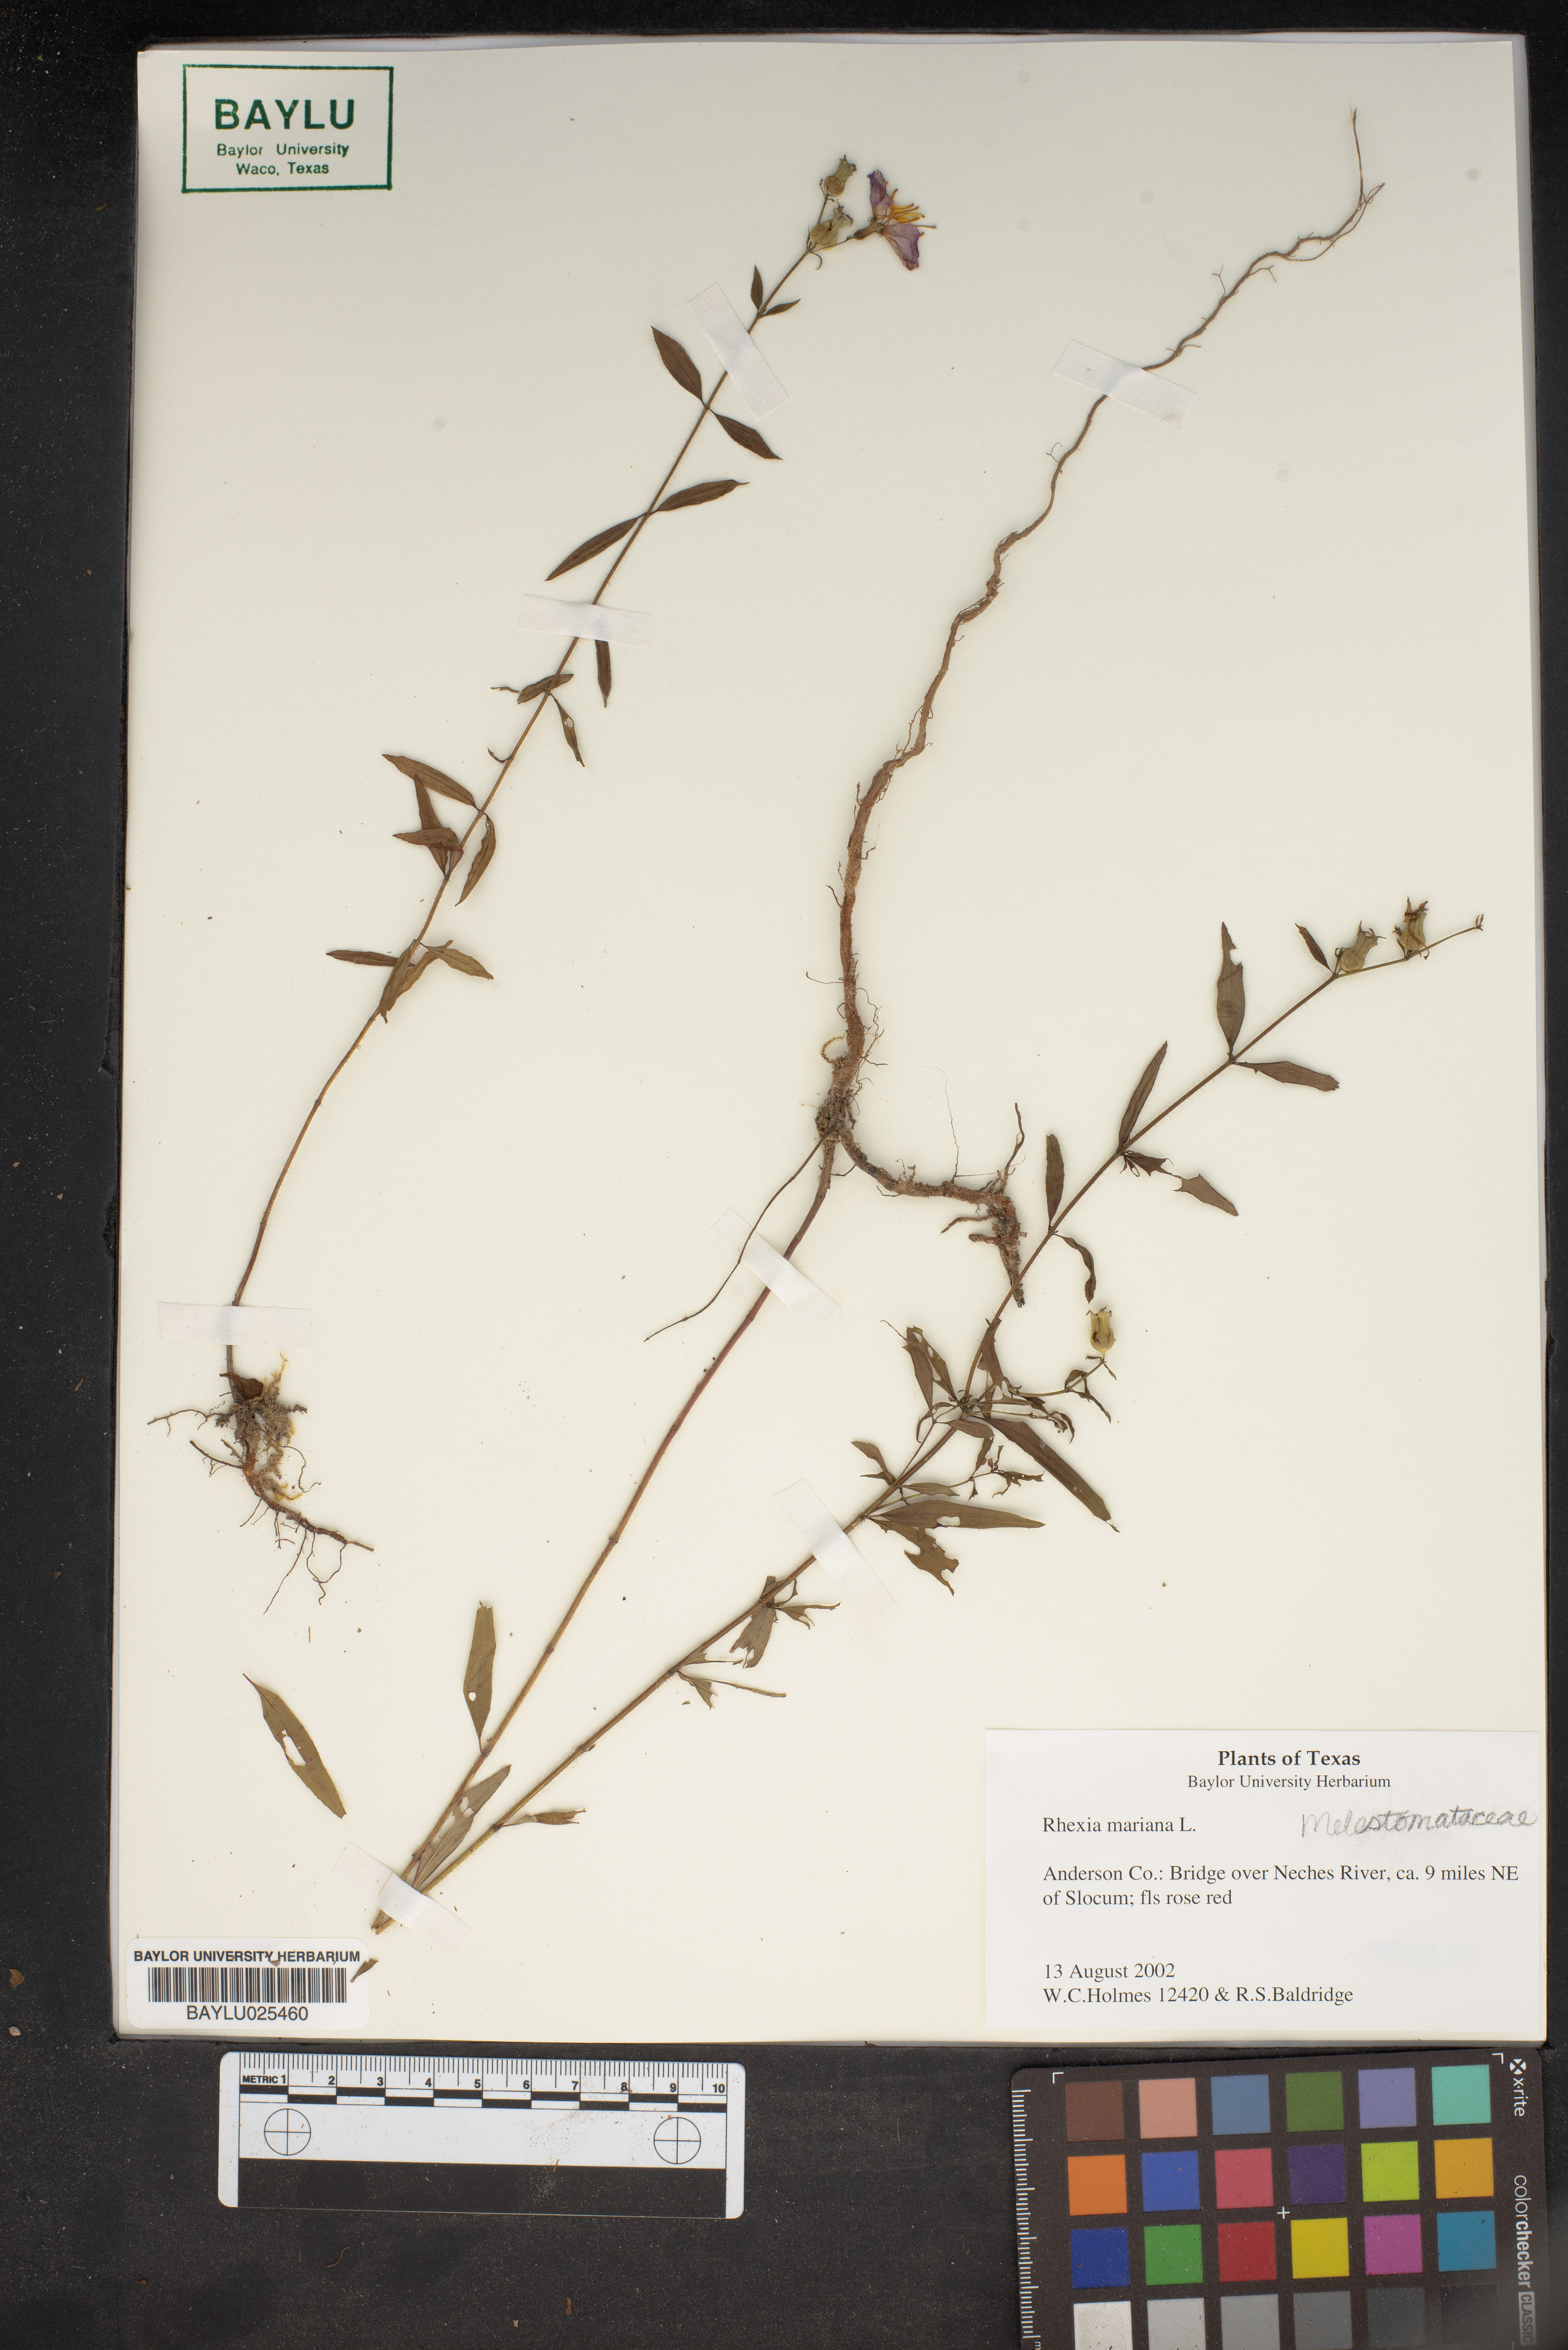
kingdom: Plantae
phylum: Tracheophyta
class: Magnoliopsida
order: Myrtales
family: Melastomataceae
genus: Rhexia
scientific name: Rhexia mariana
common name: Dull meadow-pitcher
